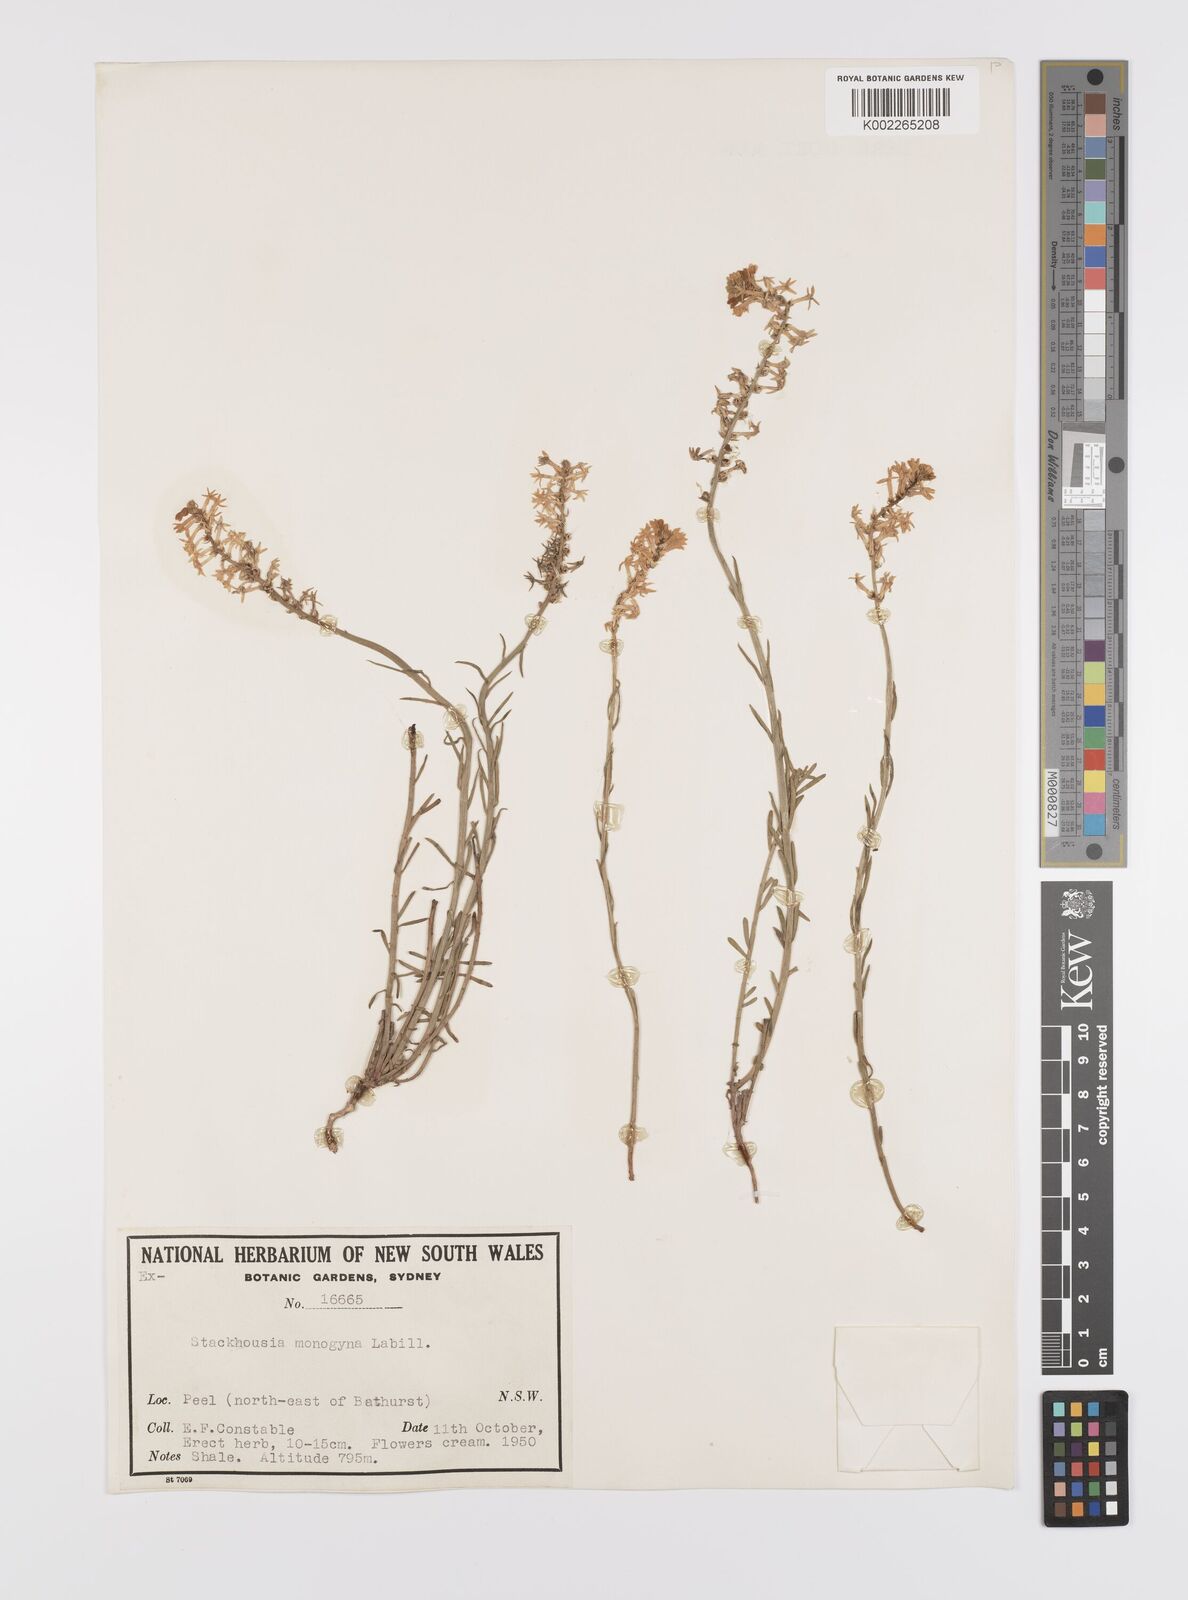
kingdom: Plantae
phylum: Tracheophyta
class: Magnoliopsida
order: Celastrales
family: Celastraceae
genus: Stackhousia
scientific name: Stackhousia monogyna
